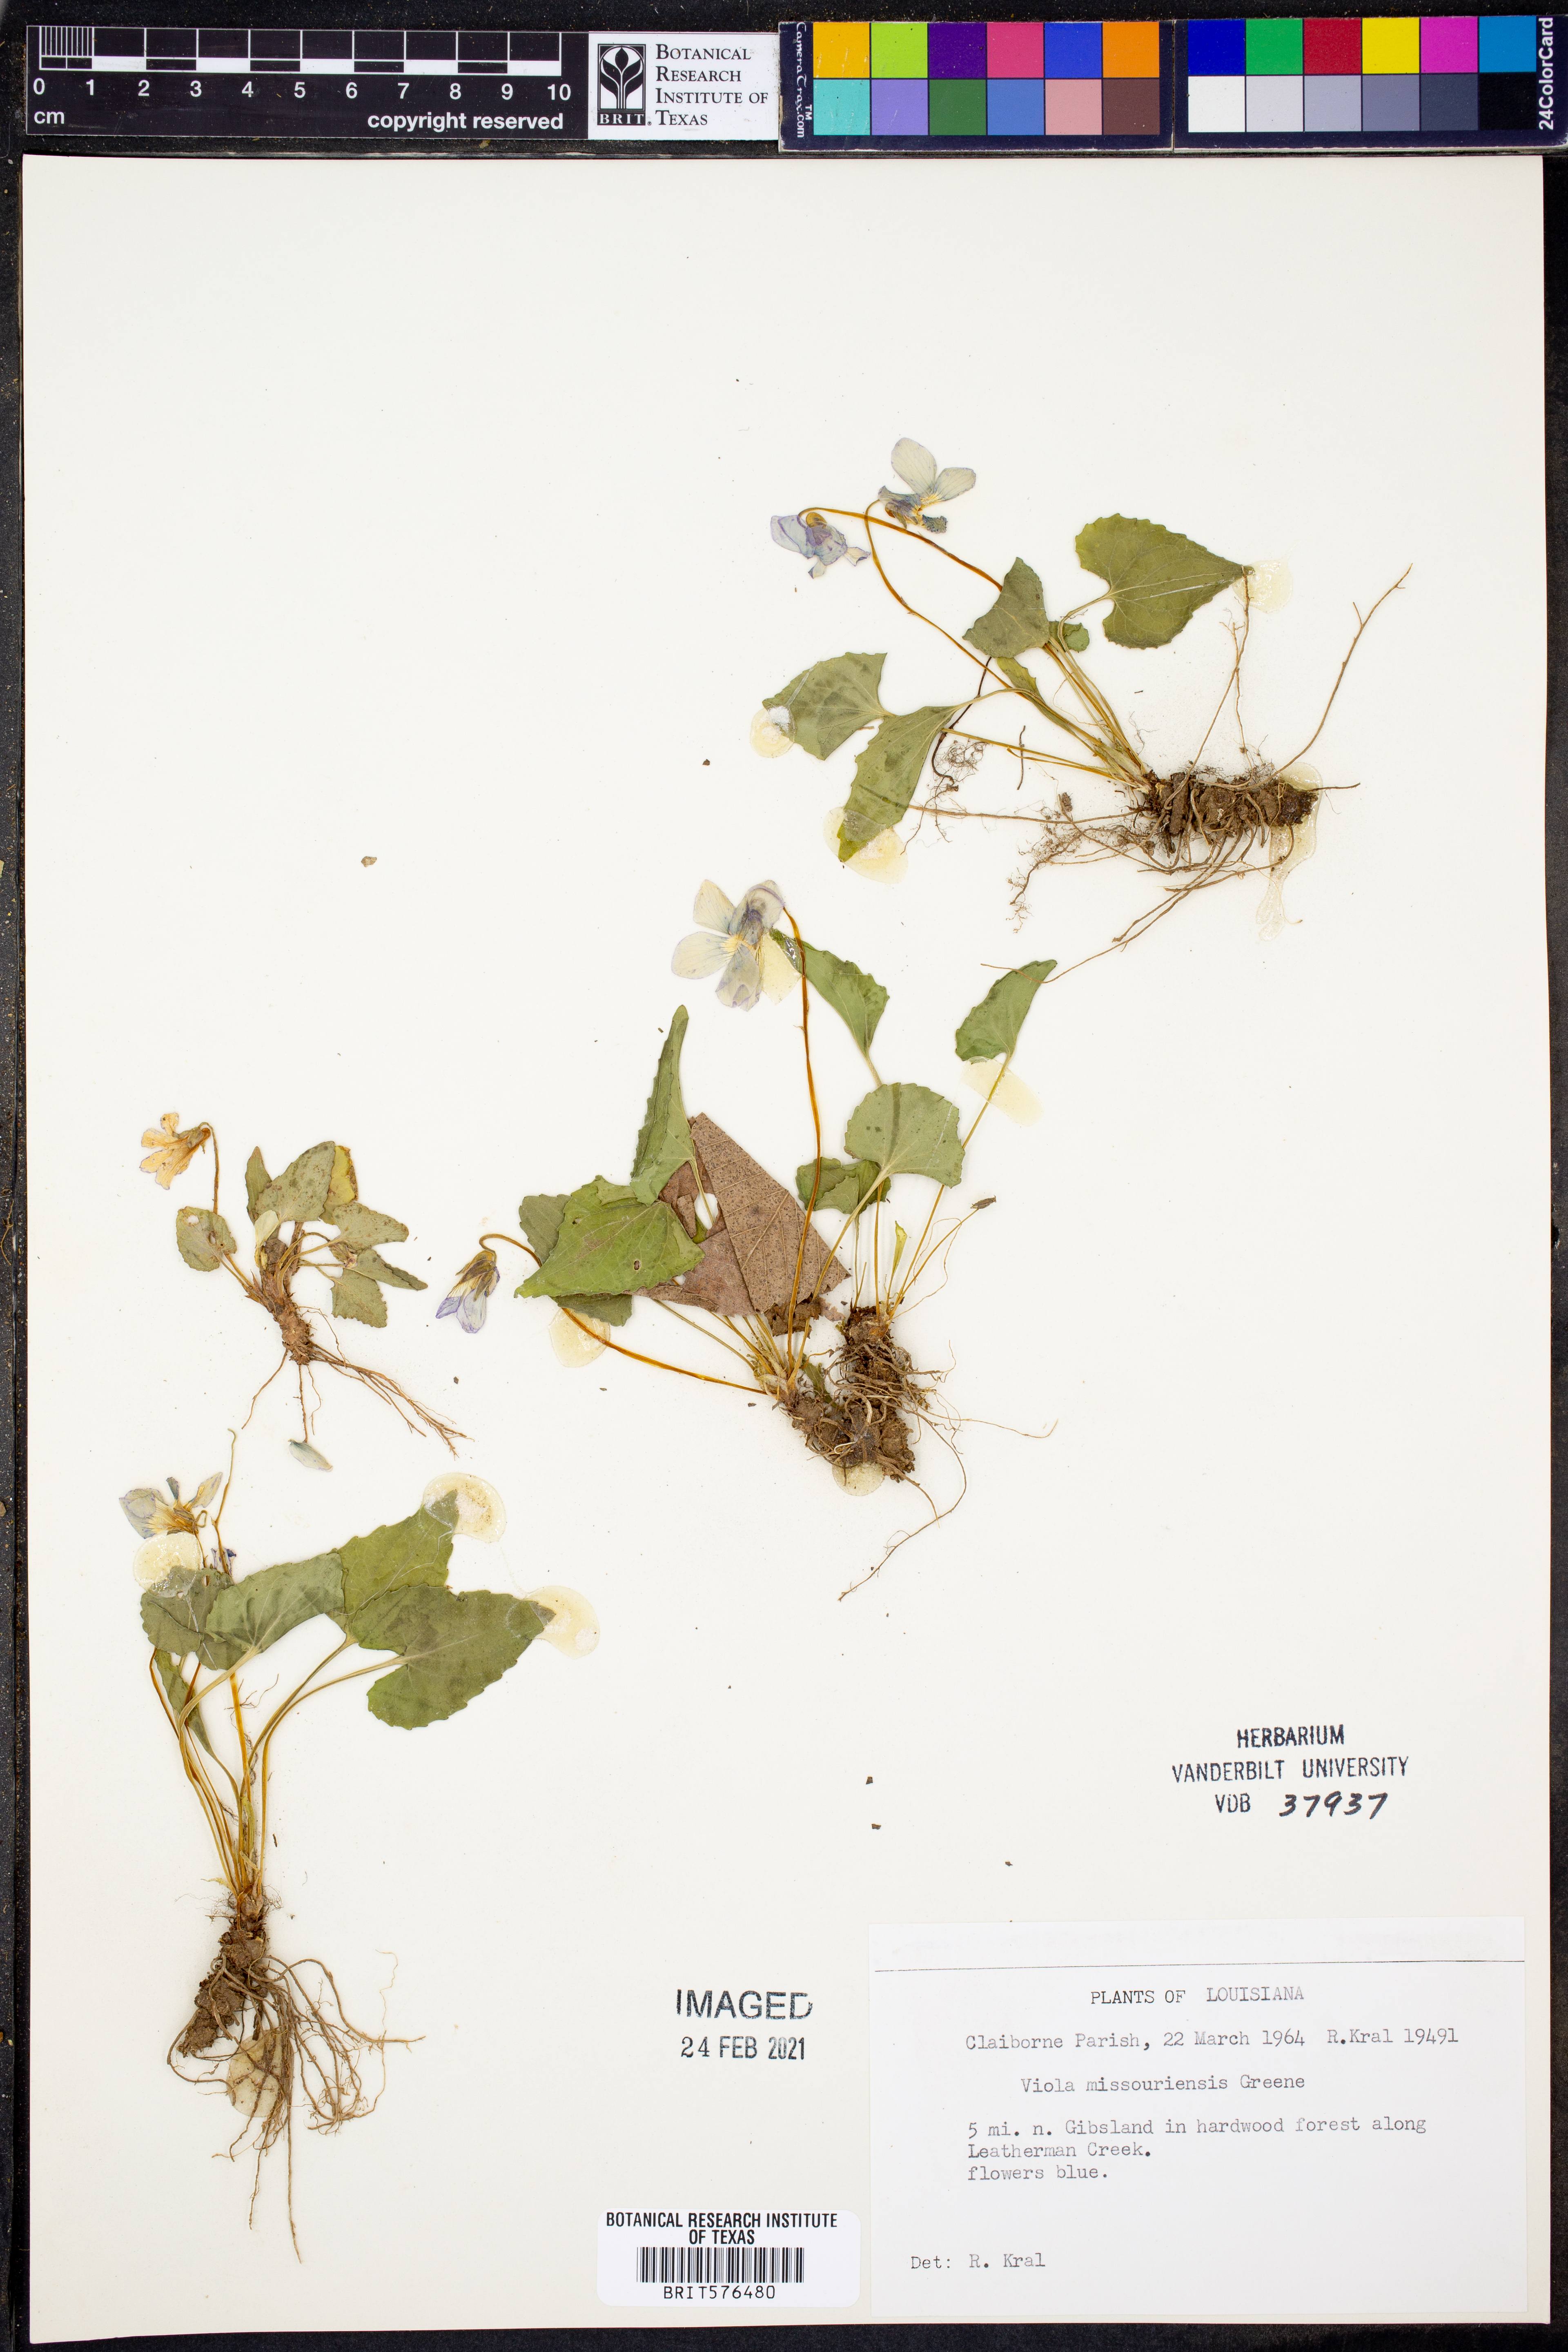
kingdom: Plantae
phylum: Tracheophyta
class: Magnoliopsida
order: Malpighiales
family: Violaceae
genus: Viola
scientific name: Viola missouriensis
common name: Missouri violet
